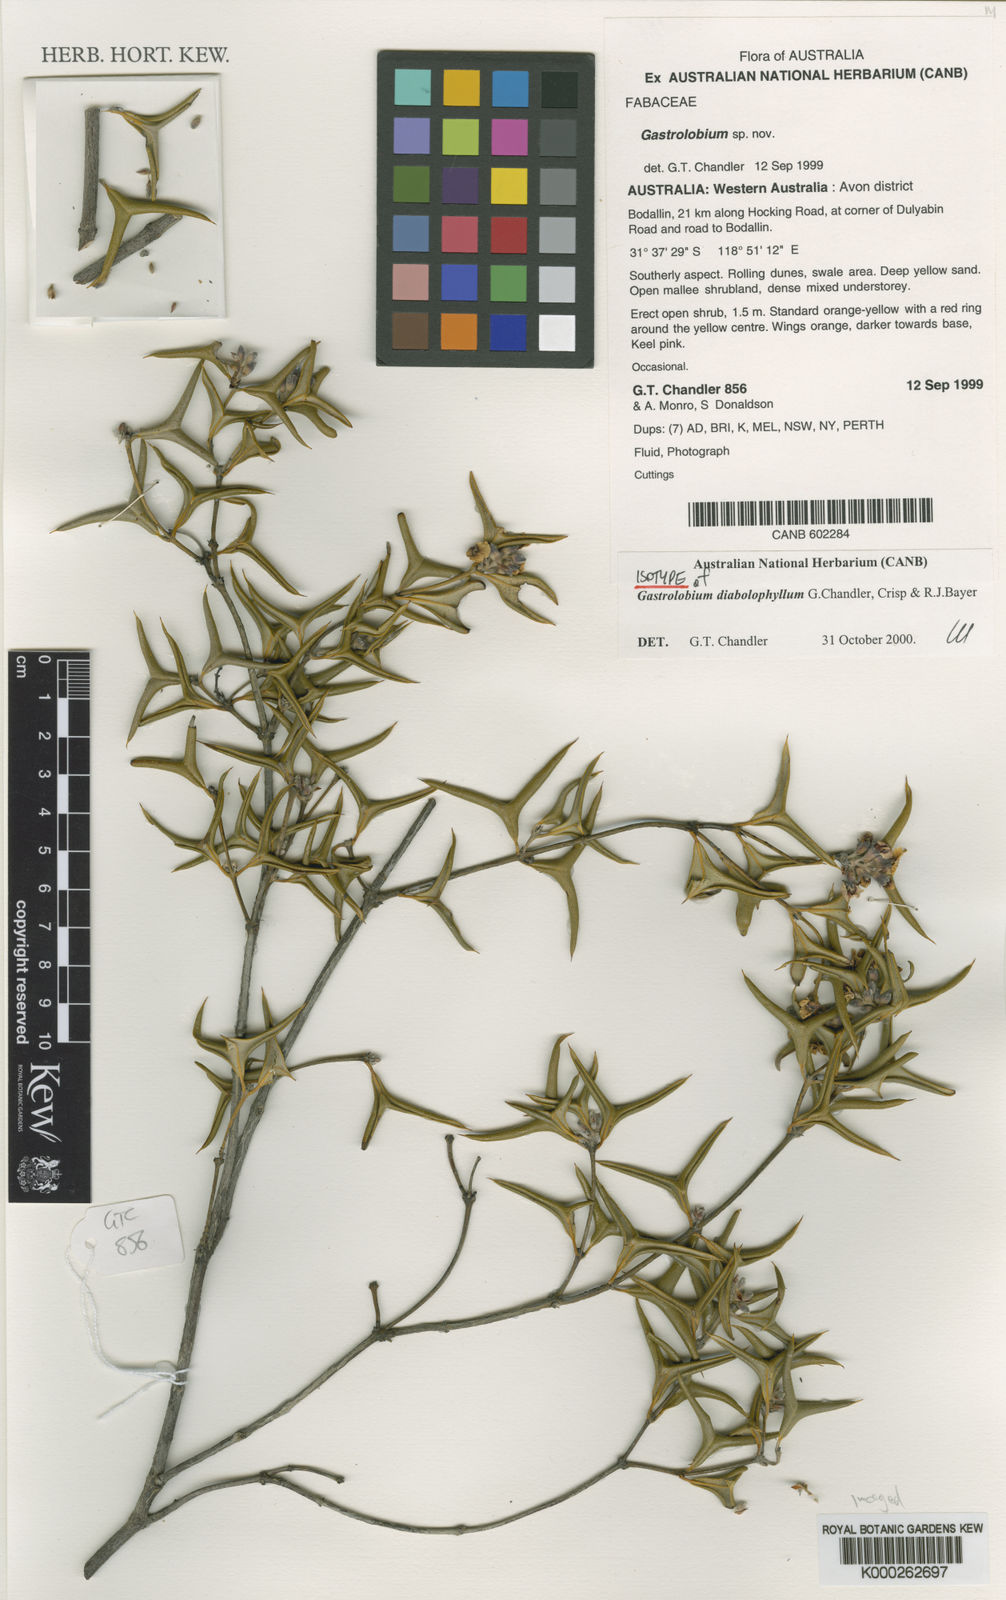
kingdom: Plantae
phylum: Tracheophyta
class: Magnoliopsida
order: Fabales
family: Fabaceae
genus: Gastrolobium
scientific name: Gastrolobium
